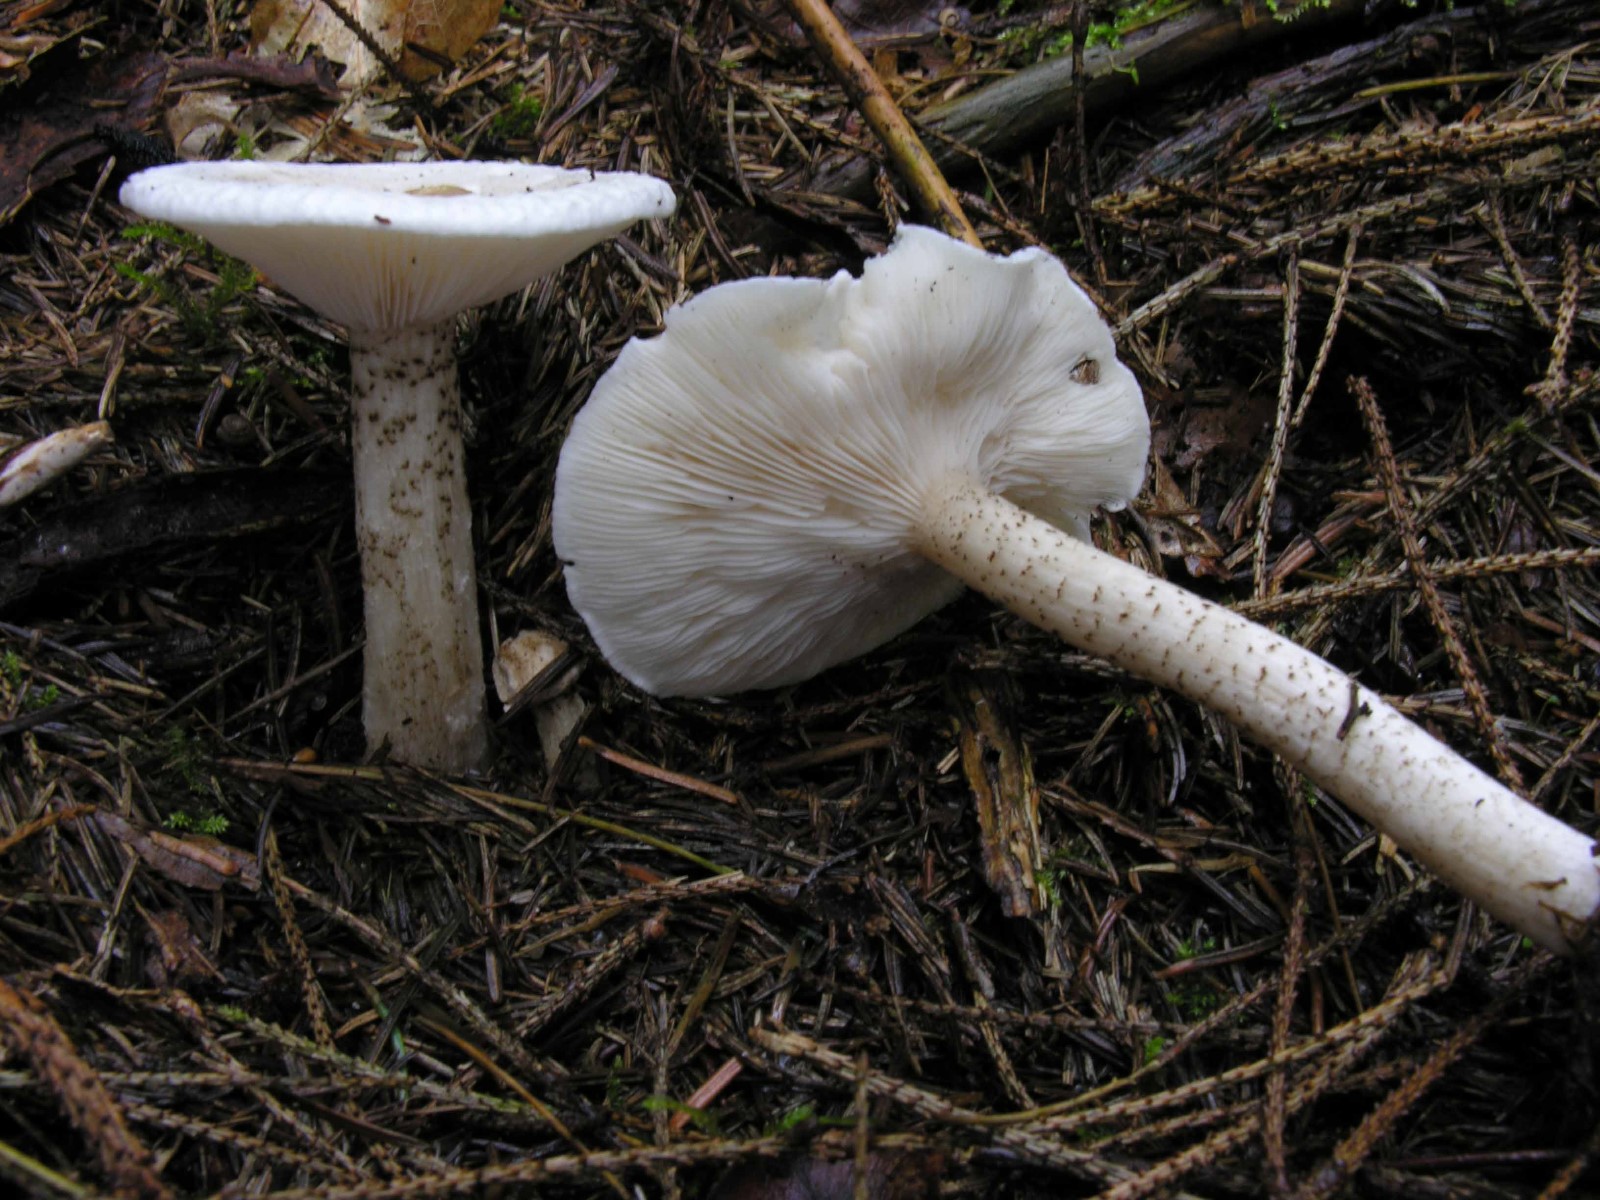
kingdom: Fungi
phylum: Basidiomycota
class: Agaricomycetes
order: Agaricales
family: Tricholomataceae
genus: Melanoleuca
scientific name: Melanoleuca verrucipes
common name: rufodet munkehat
